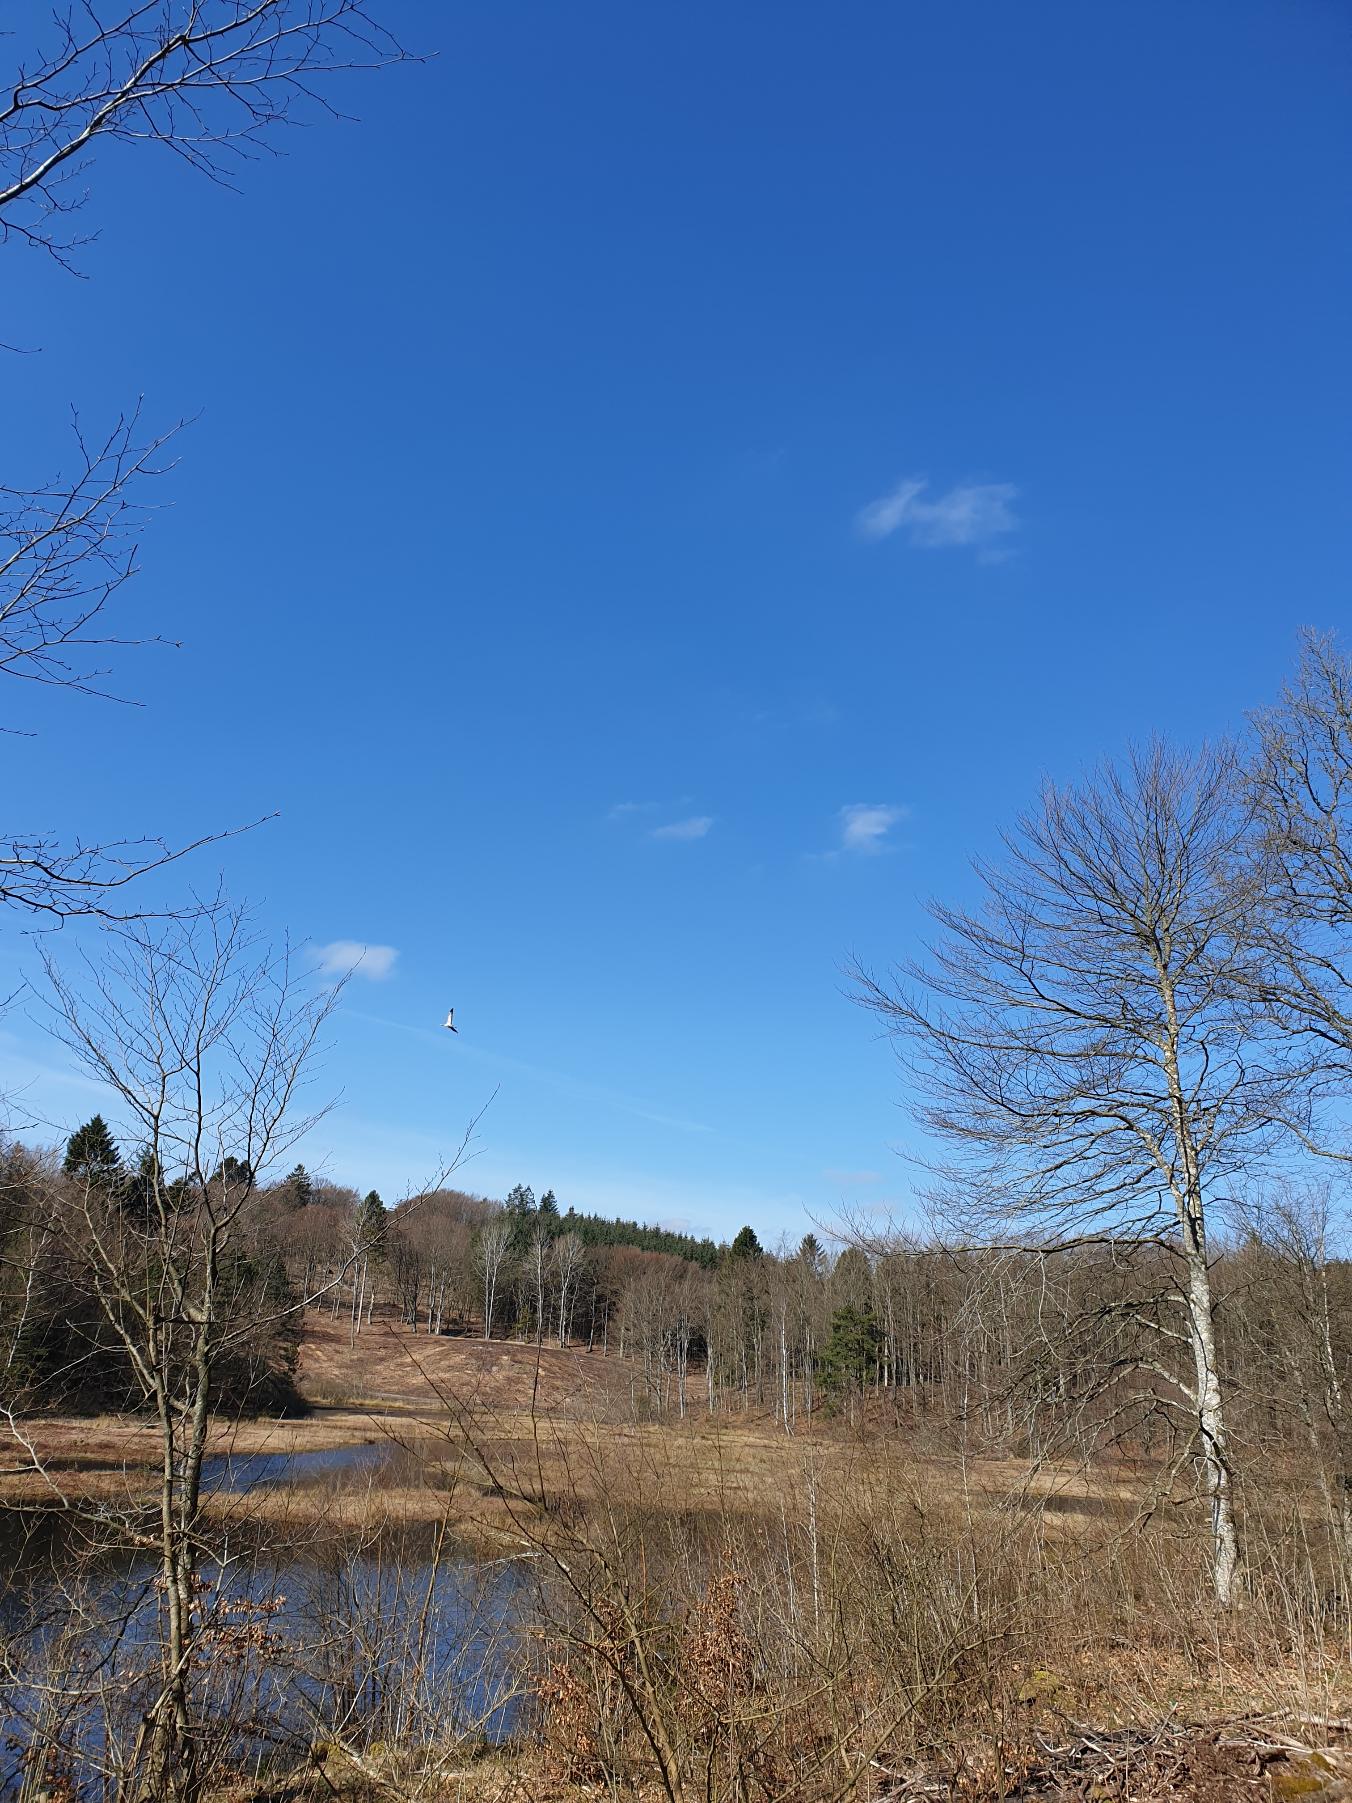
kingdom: Animalia
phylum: Chordata
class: Aves
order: Gruiformes
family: Gruidae
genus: Grus
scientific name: Grus grus
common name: Trane
